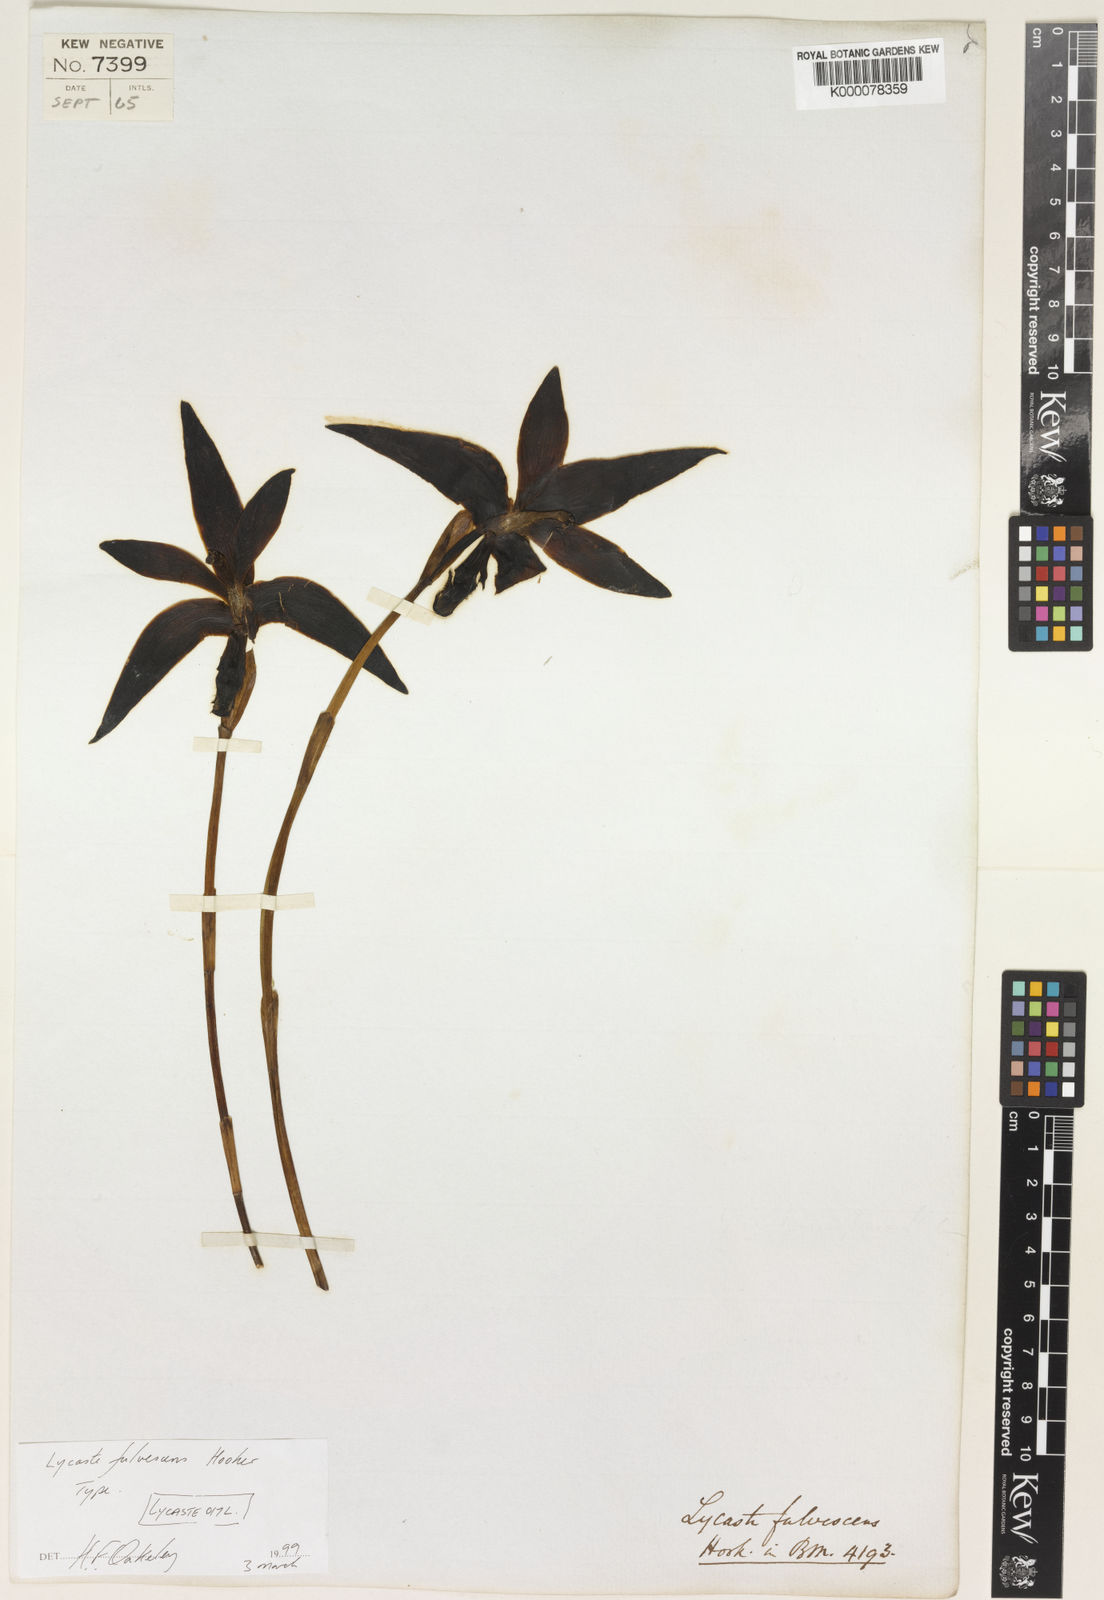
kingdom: Plantae
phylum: Tracheophyta
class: Liliopsida
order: Asparagales
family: Orchidaceae
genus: Ida
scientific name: Ida fulvescens
